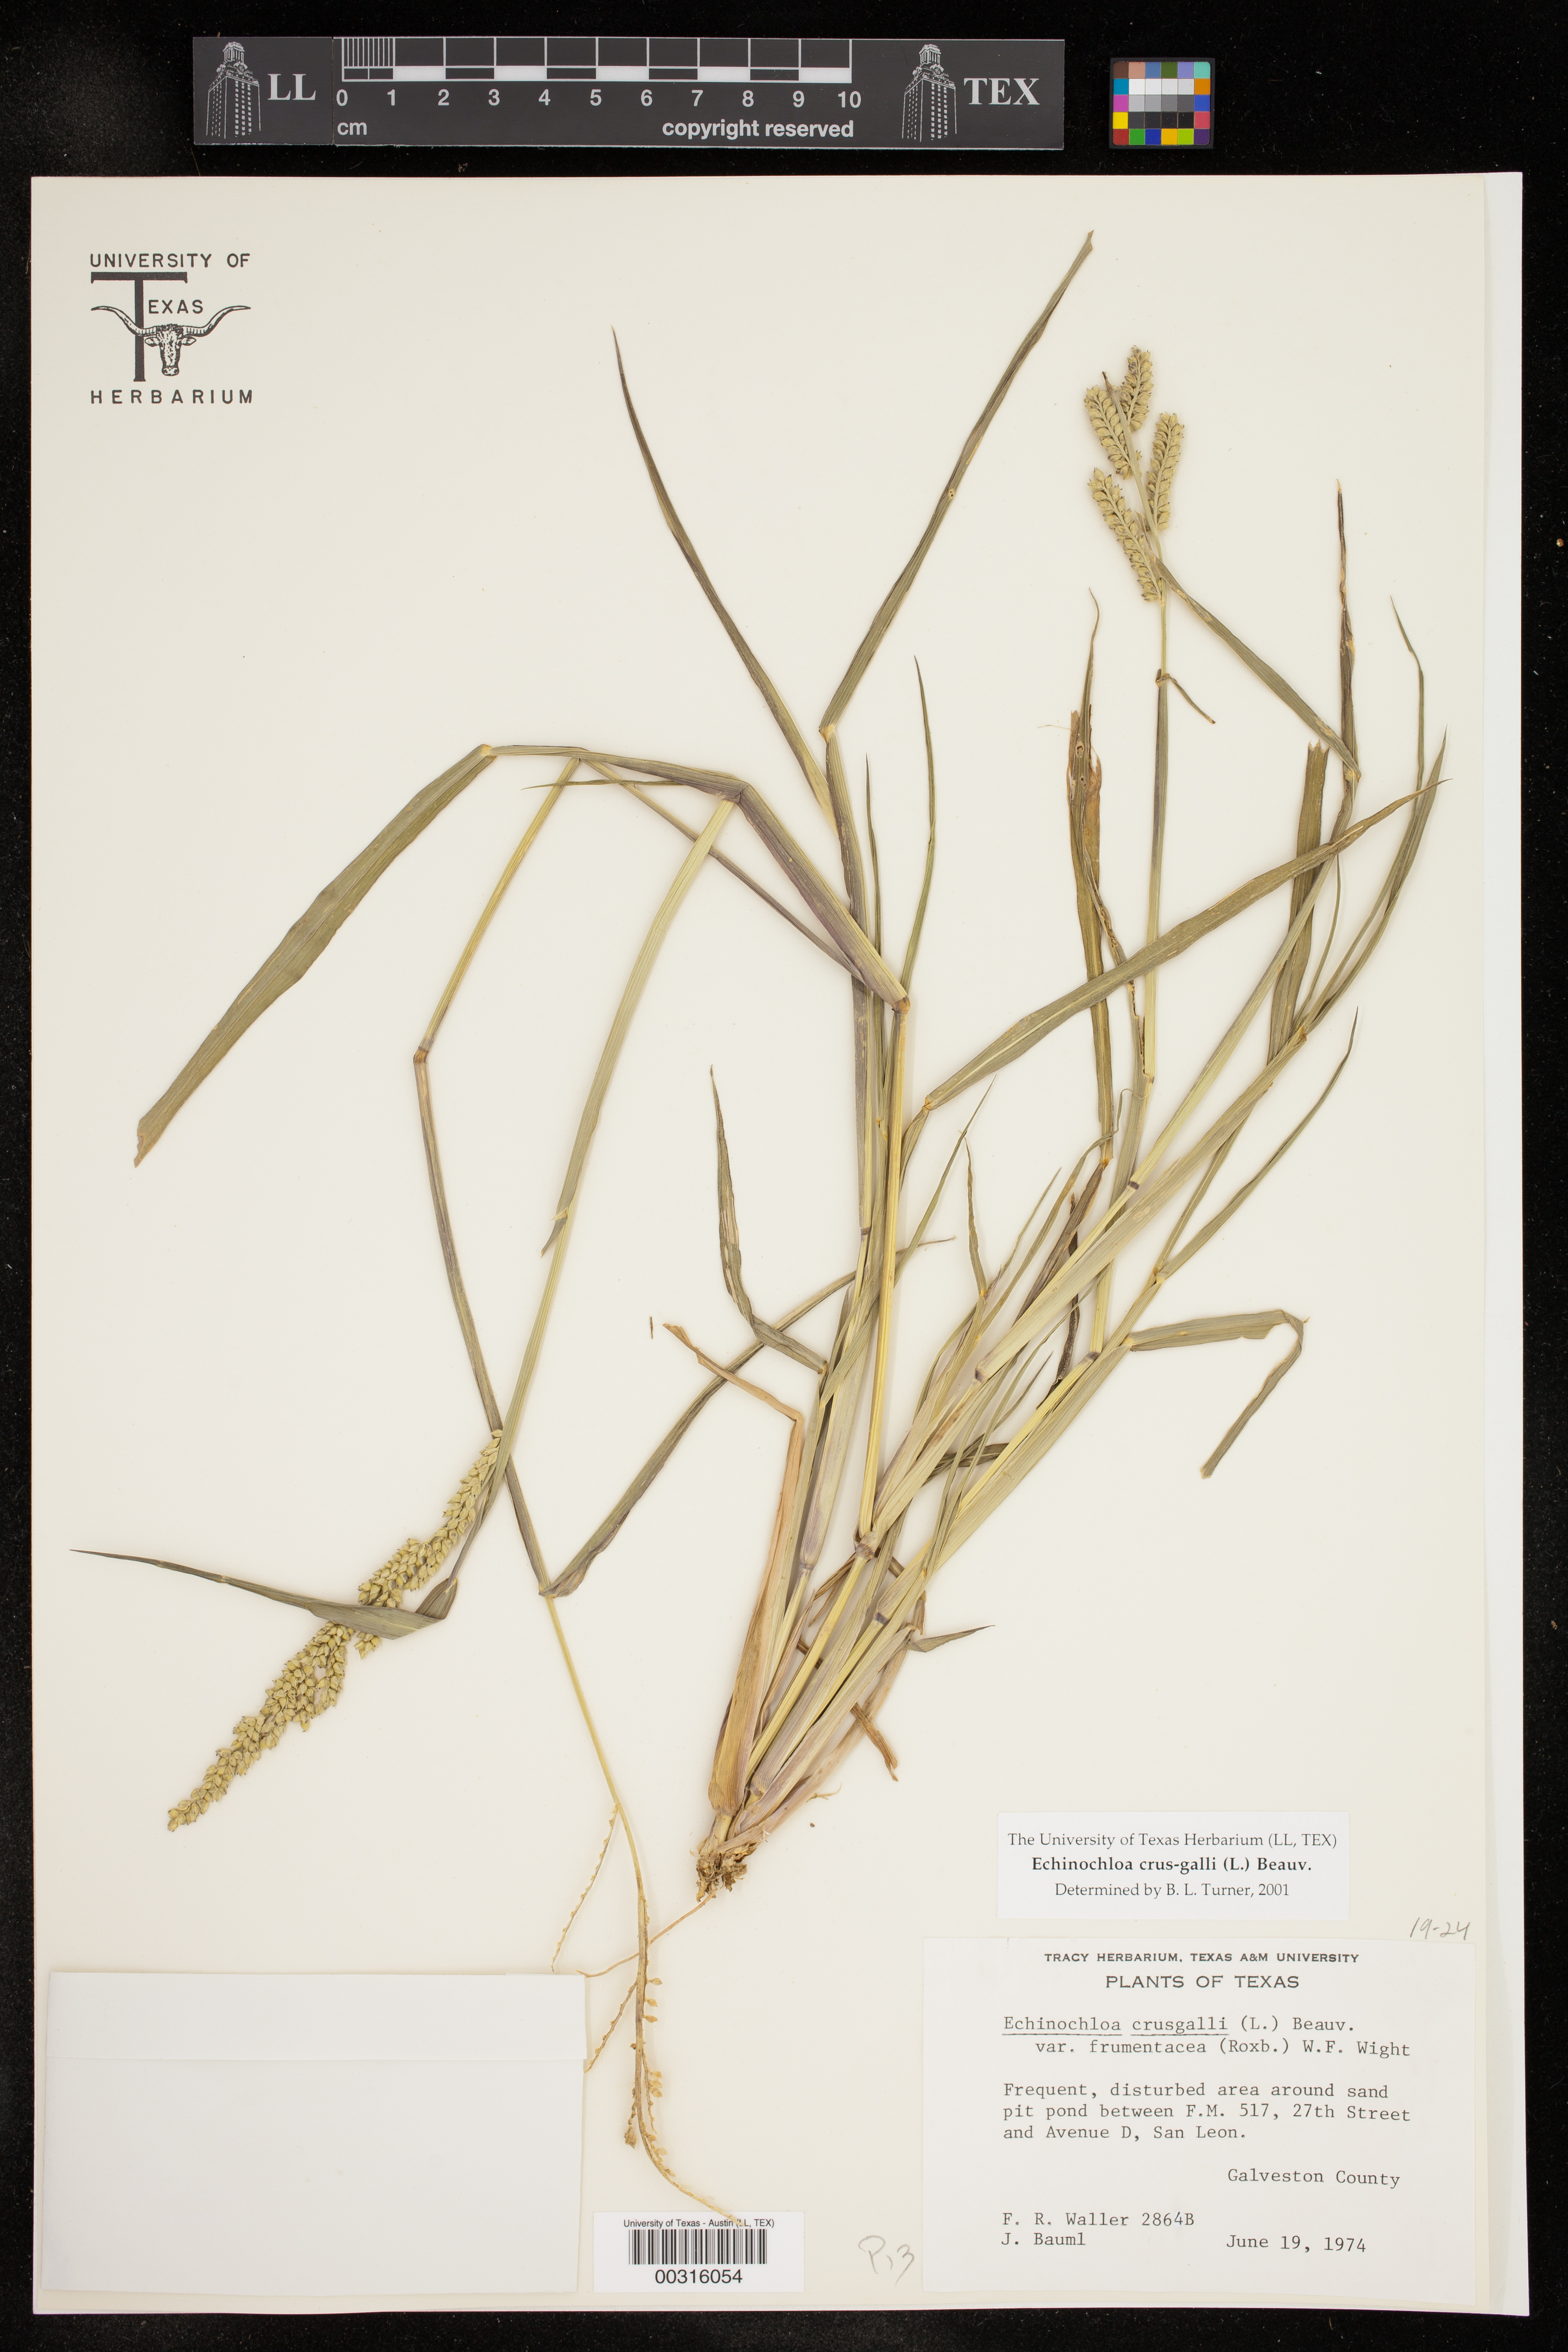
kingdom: Plantae
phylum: Tracheophyta
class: Liliopsida
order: Poales
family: Poaceae
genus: Echinochloa
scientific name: Echinochloa crus-galli
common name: Cockspur
